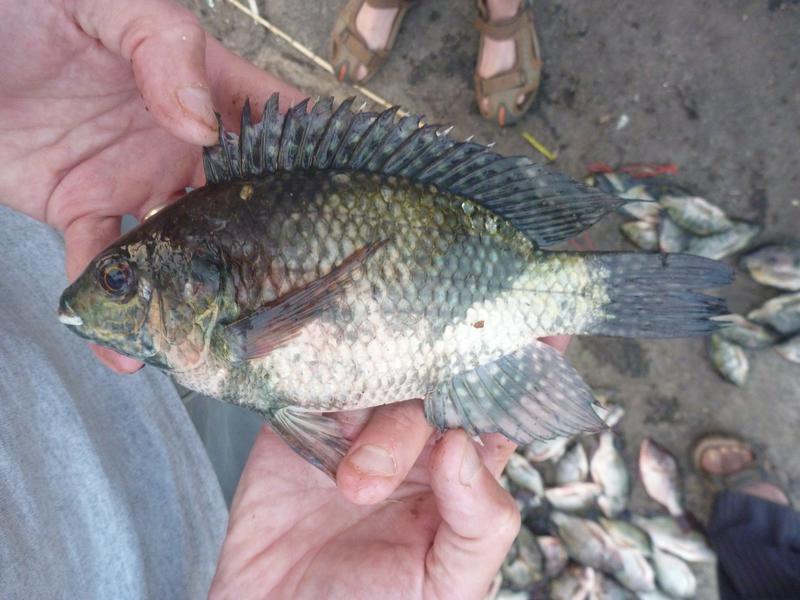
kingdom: Animalia
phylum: Chordata
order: Perciformes
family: Cichlidae
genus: Oreochromis
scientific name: Oreochromis leucostictus
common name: Blue spotted tilapia
